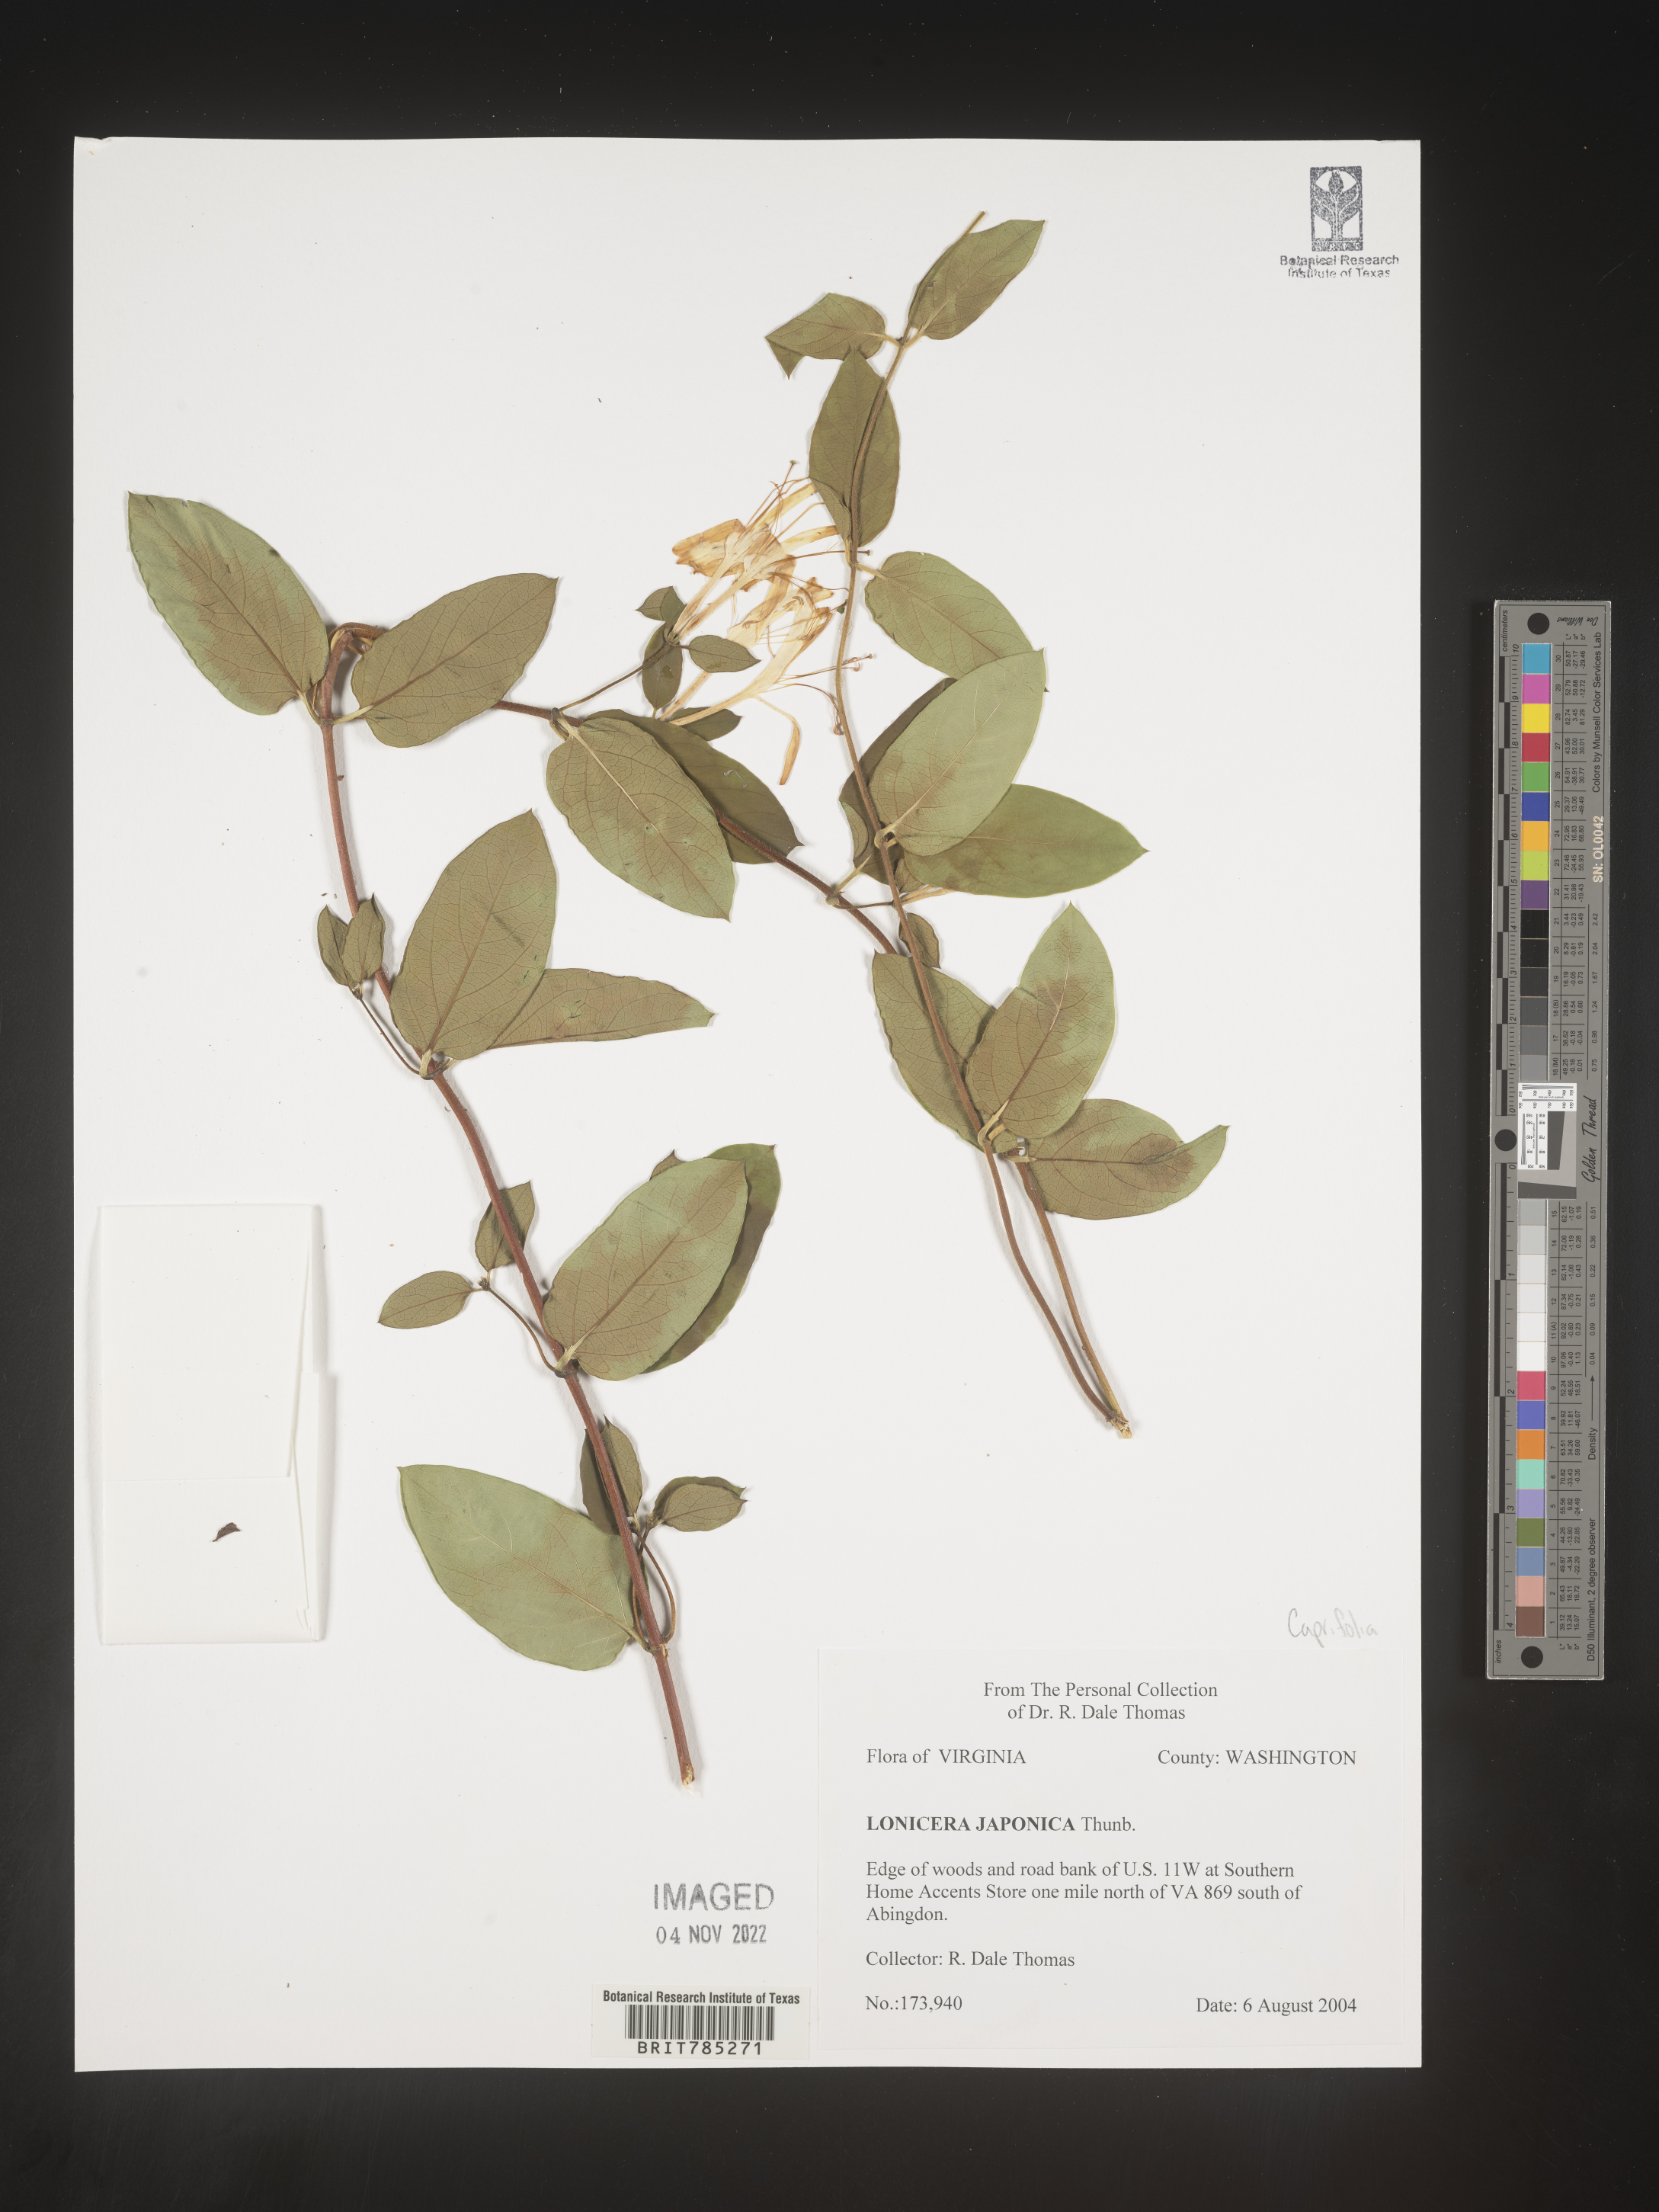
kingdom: Plantae
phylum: Tracheophyta
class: Magnoliopsida
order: Dipsacales
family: Caprifoliaceae
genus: Lonicera
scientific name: Lonicera japonica
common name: Japanese honeysuckle
